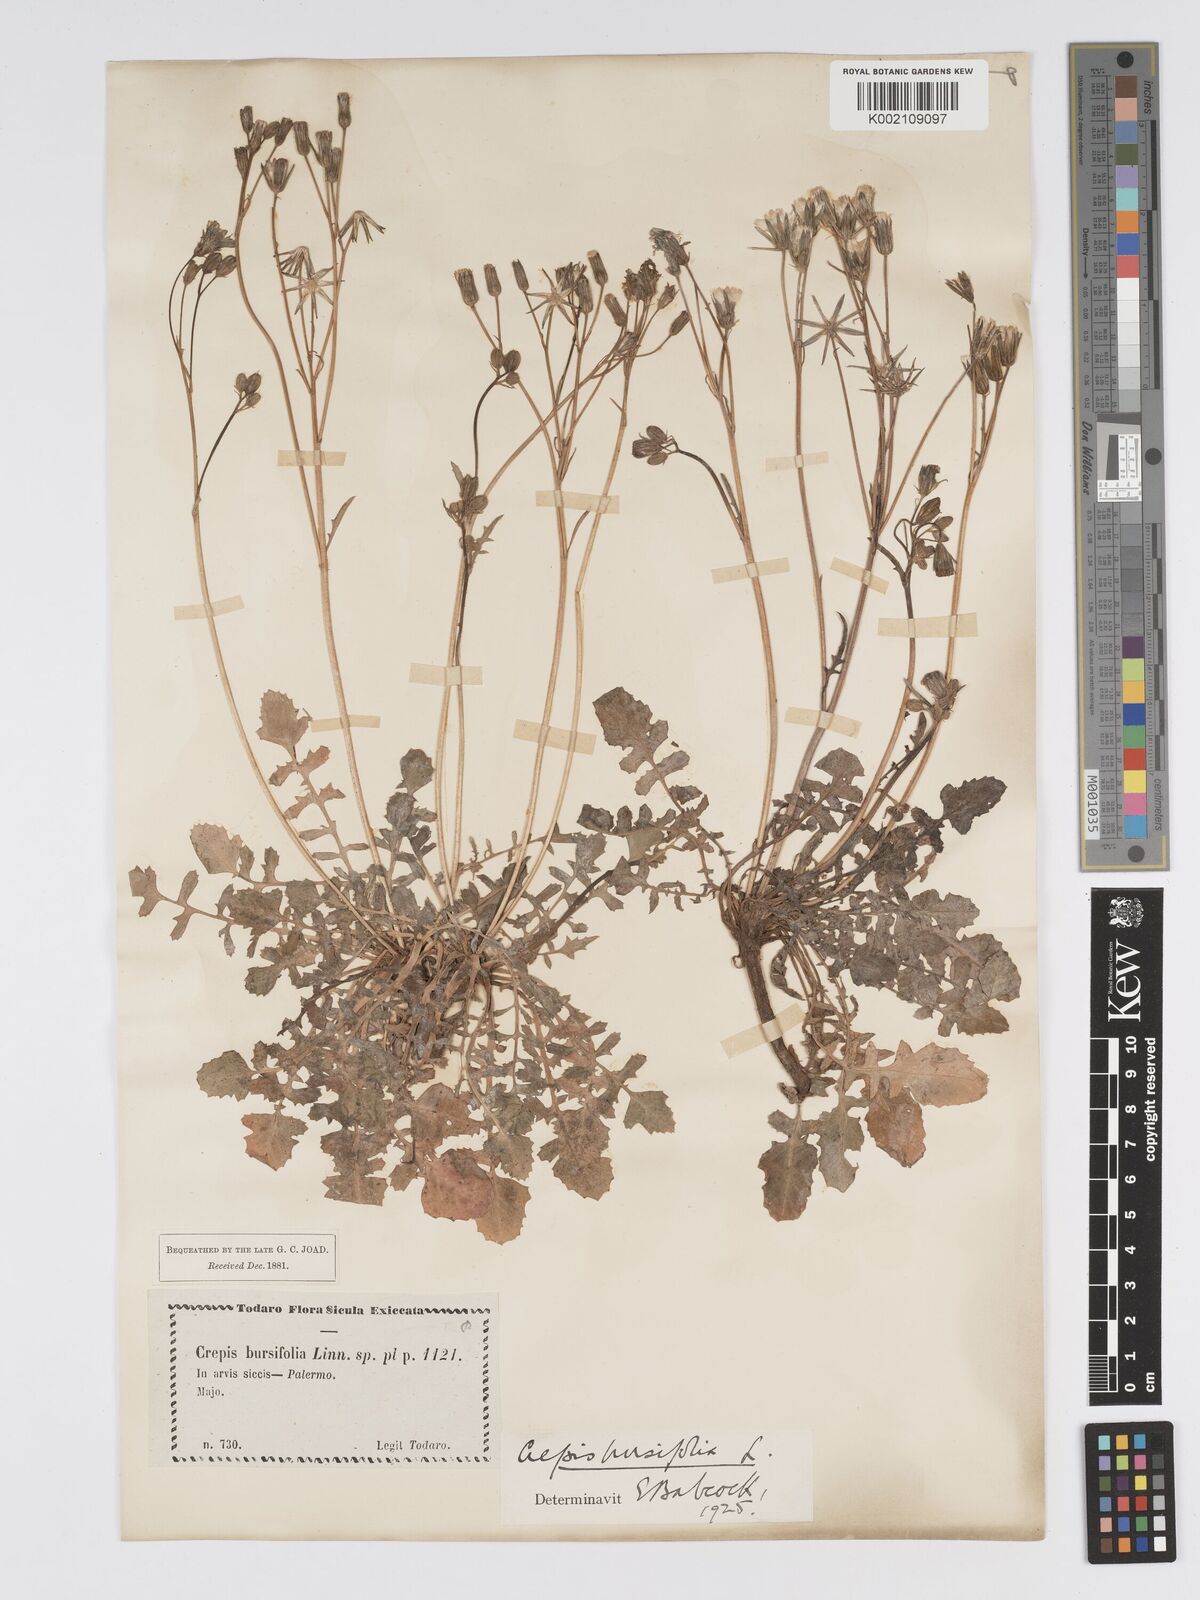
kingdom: Plantae
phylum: Tracheophyta
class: Magnoliopsida
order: Asterales
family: Asteraceae
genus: Crepis
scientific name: Crepis bursifolia
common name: Italian hawksbeard
